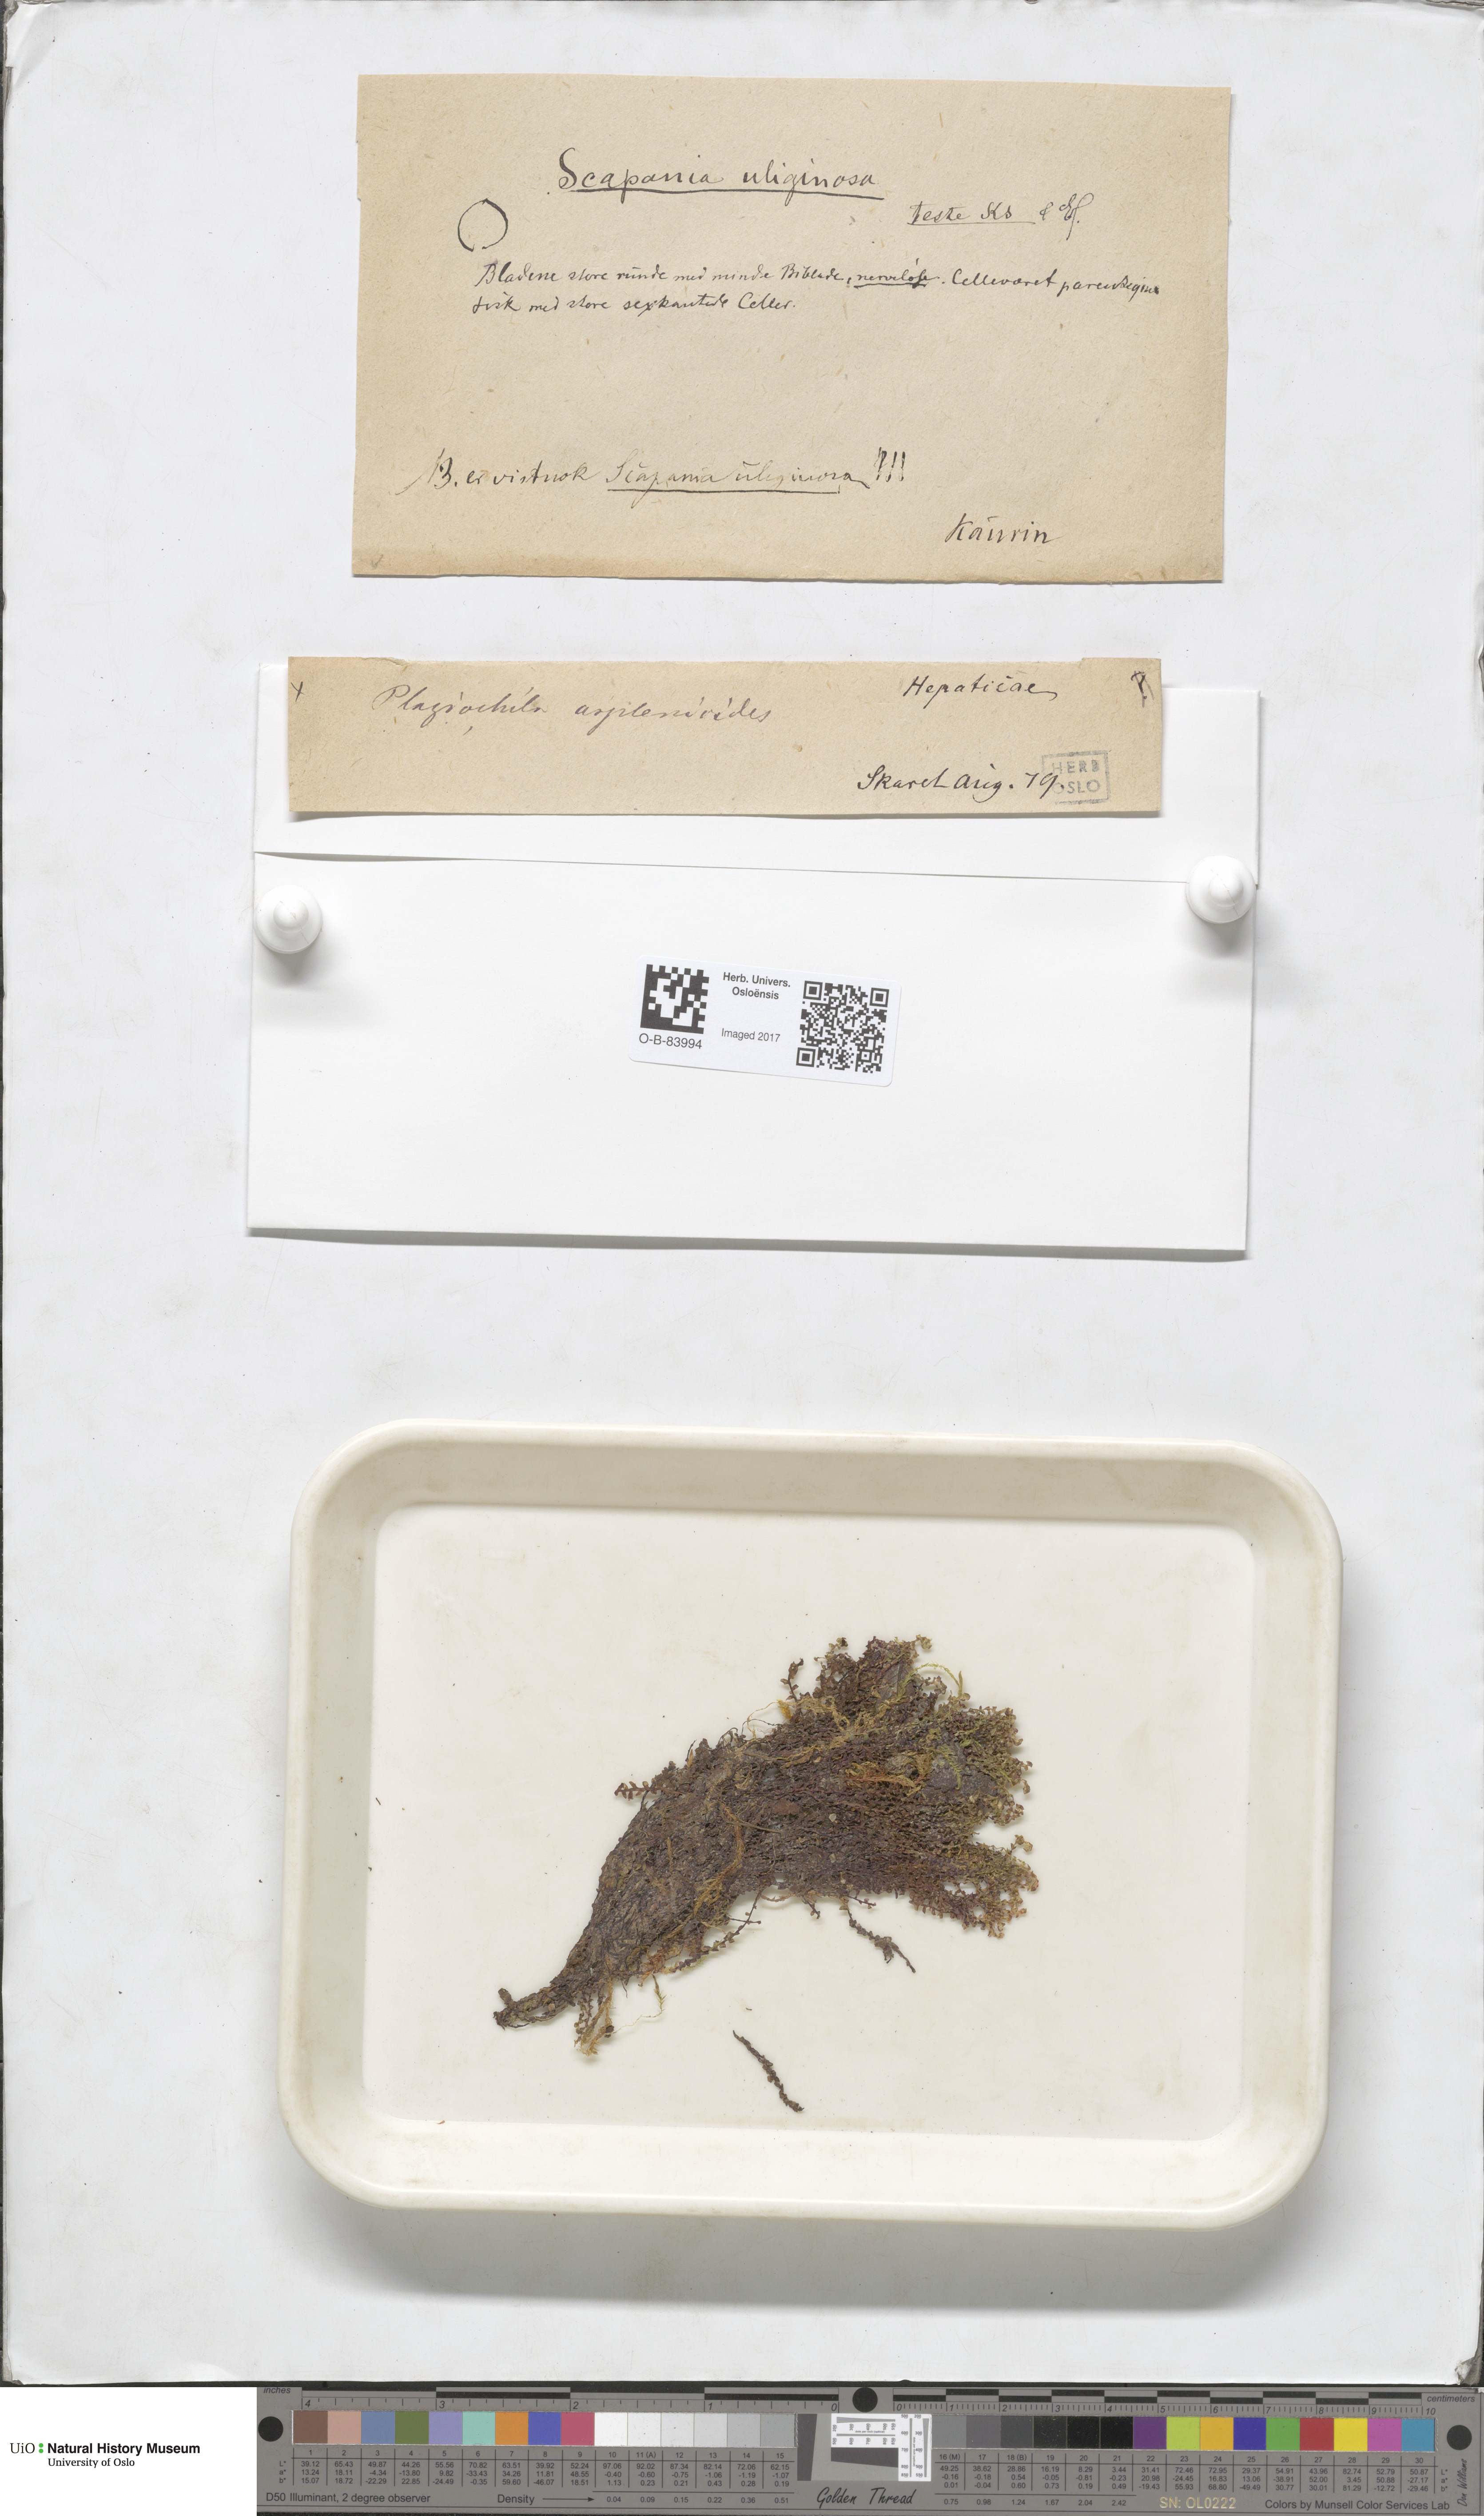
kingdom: Plantae
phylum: Marchantiophyta
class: Jungermanniopsida
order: Jungermanniales
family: Scapaniaceae
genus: Scapania
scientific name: Scapania uliginosa
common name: Marsh earwort
